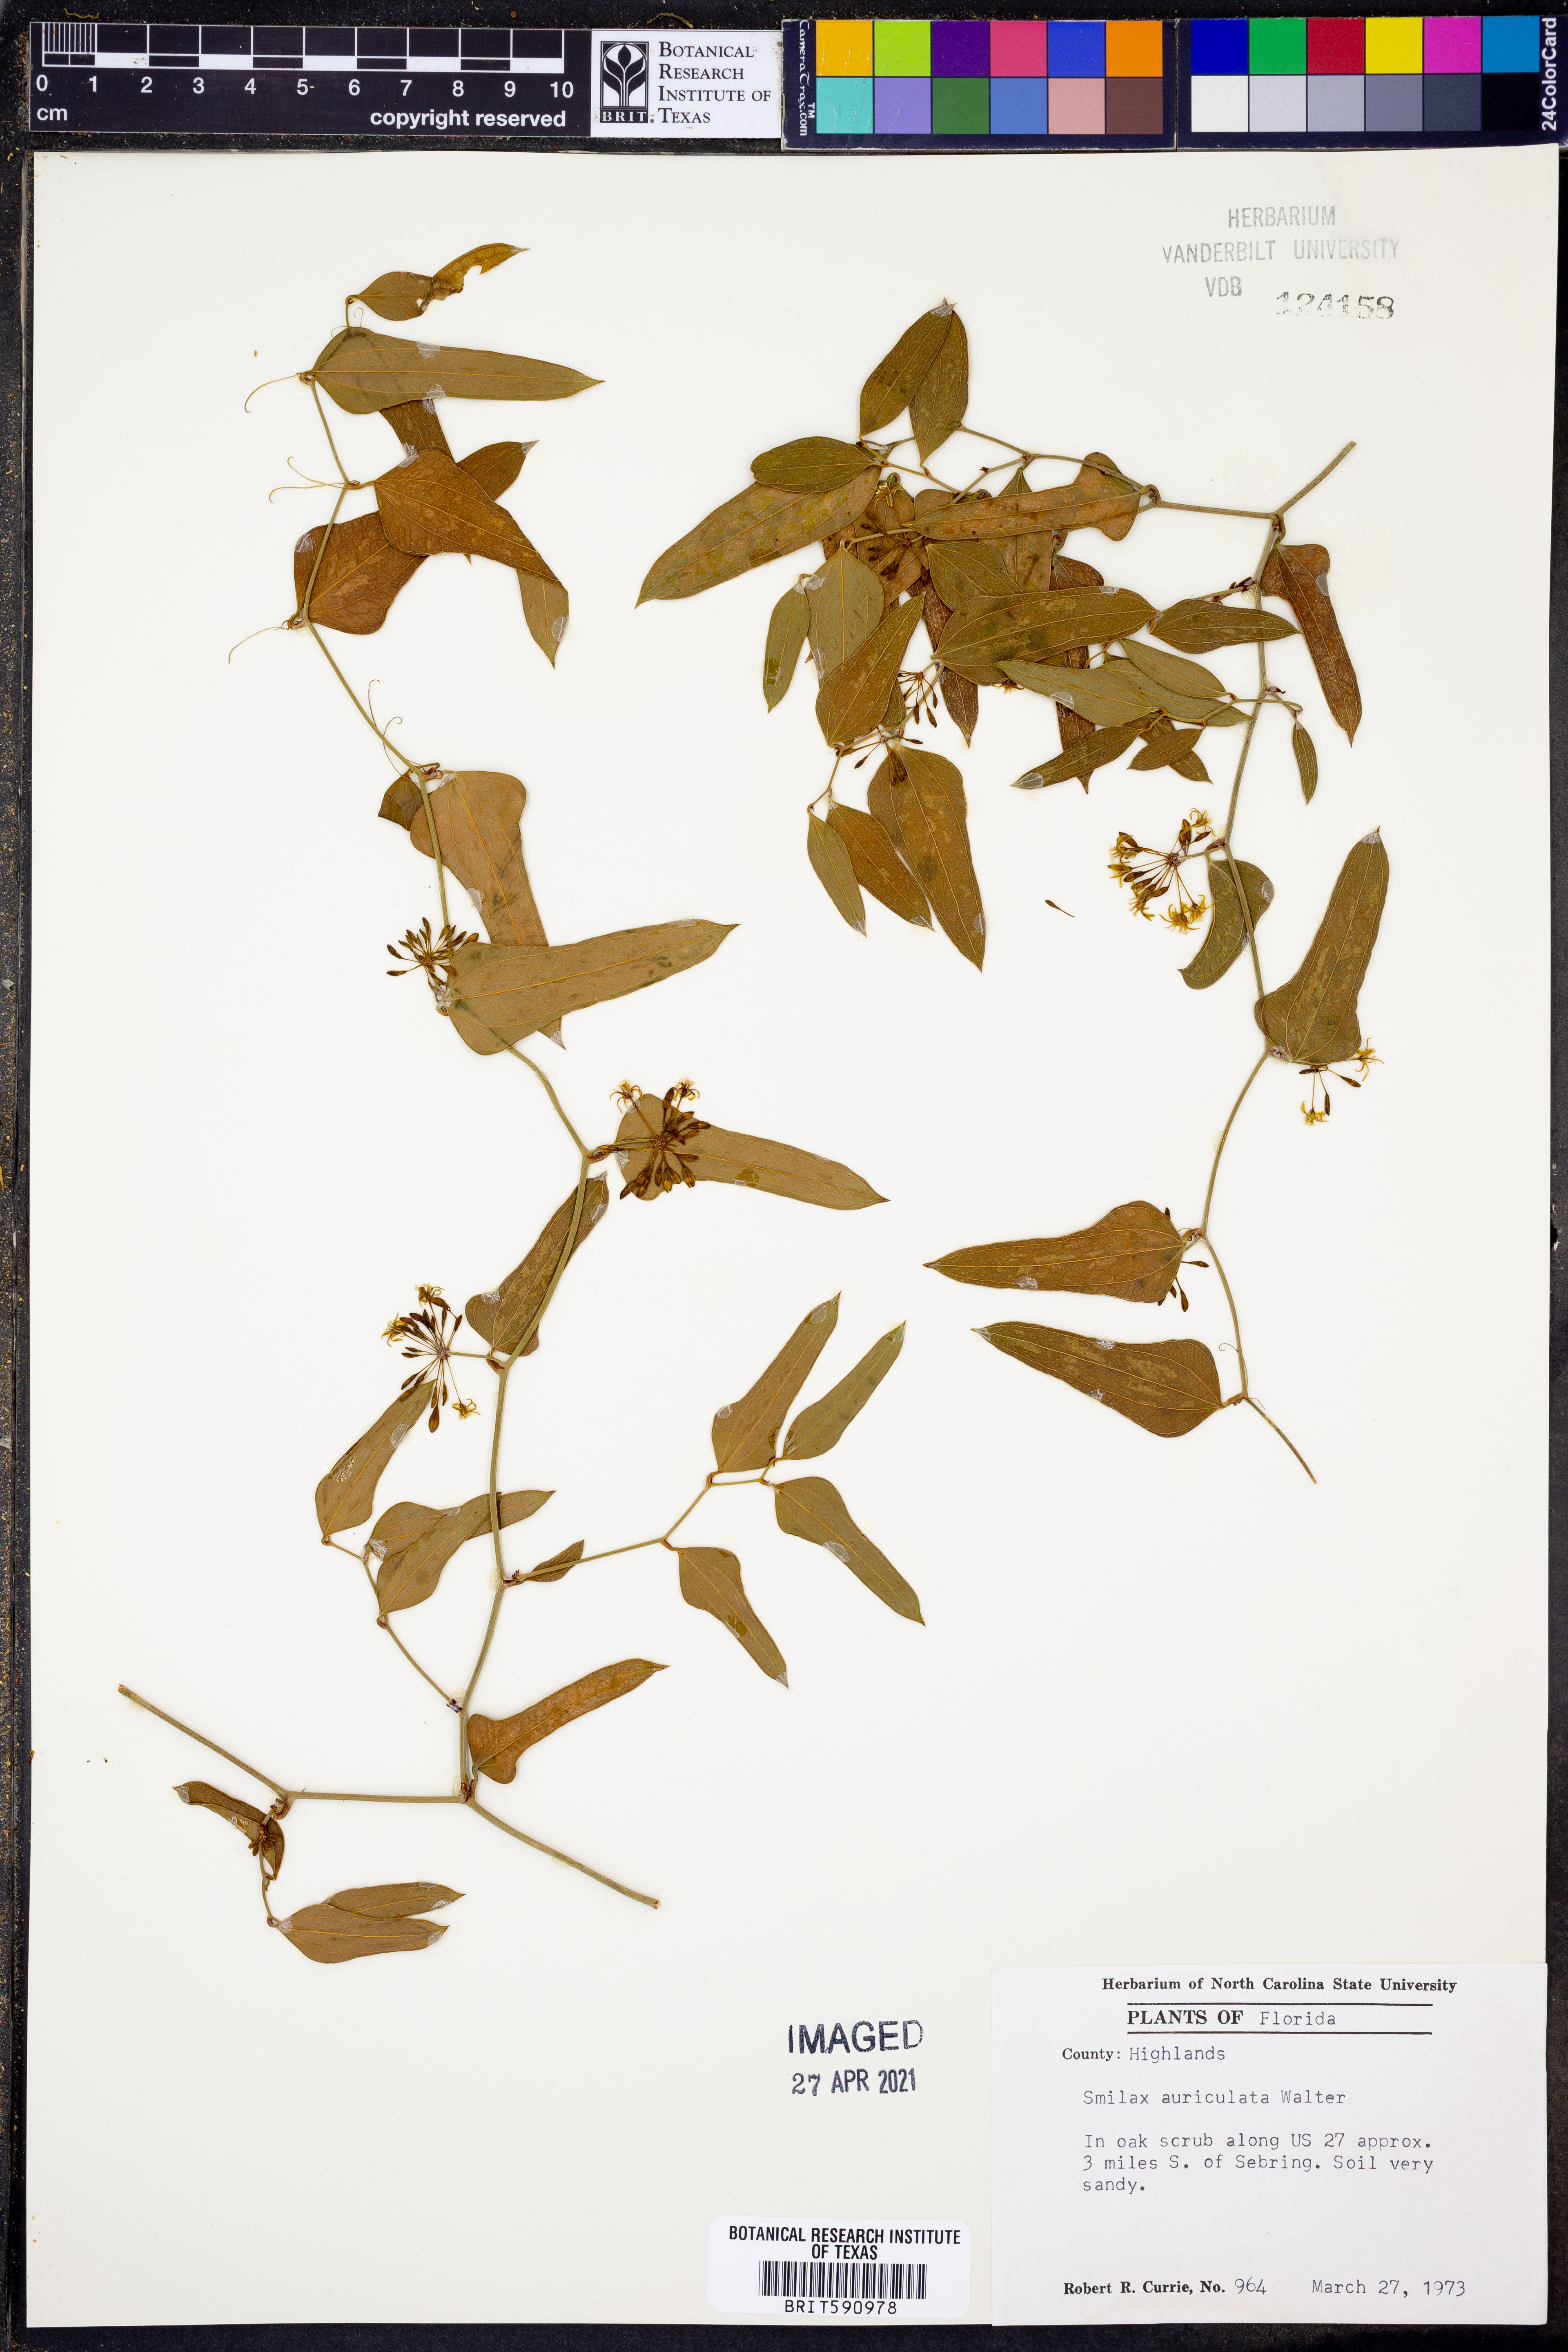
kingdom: Plantae
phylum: Tracheophyta
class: Liliopsida
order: Liliales
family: Smilacaceae
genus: Smilax
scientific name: Smilax auriculata
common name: Wild bamboo
